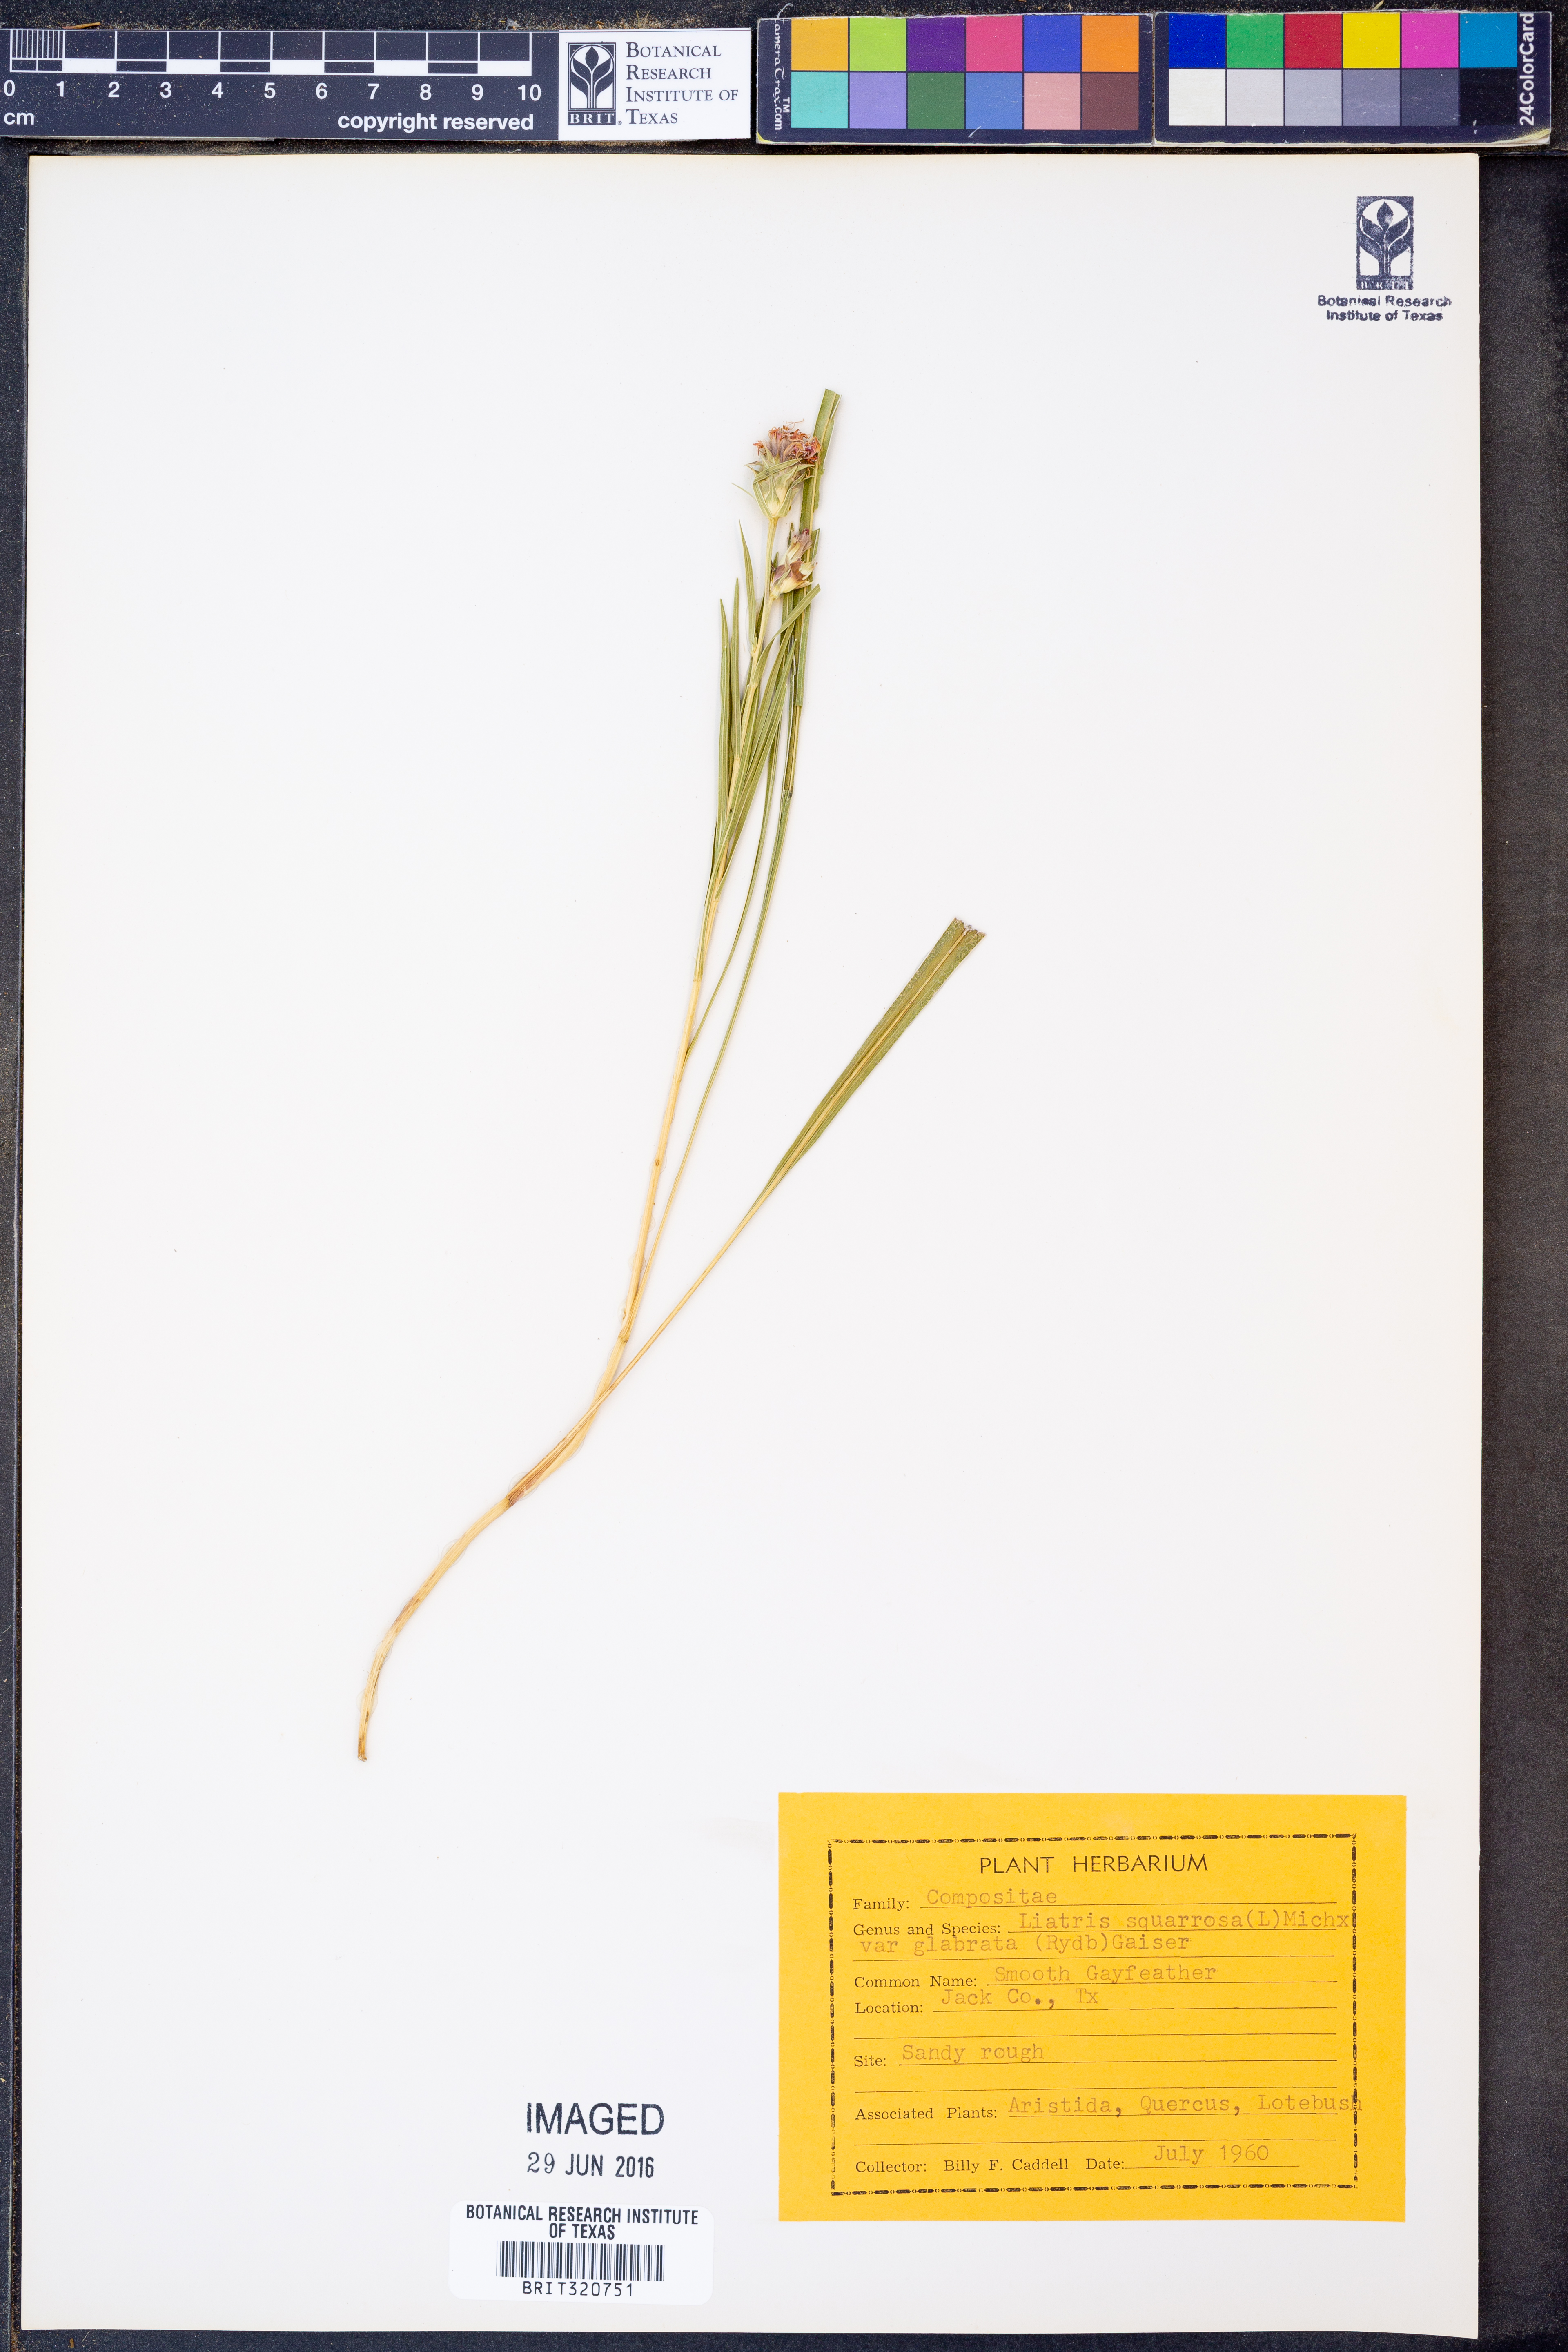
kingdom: Plantae
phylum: Tracheophyta
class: Magnoliopsida
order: Asterales
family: Asteraceae
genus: Liatris
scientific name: Liatris spicata
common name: Florist gayfeather
